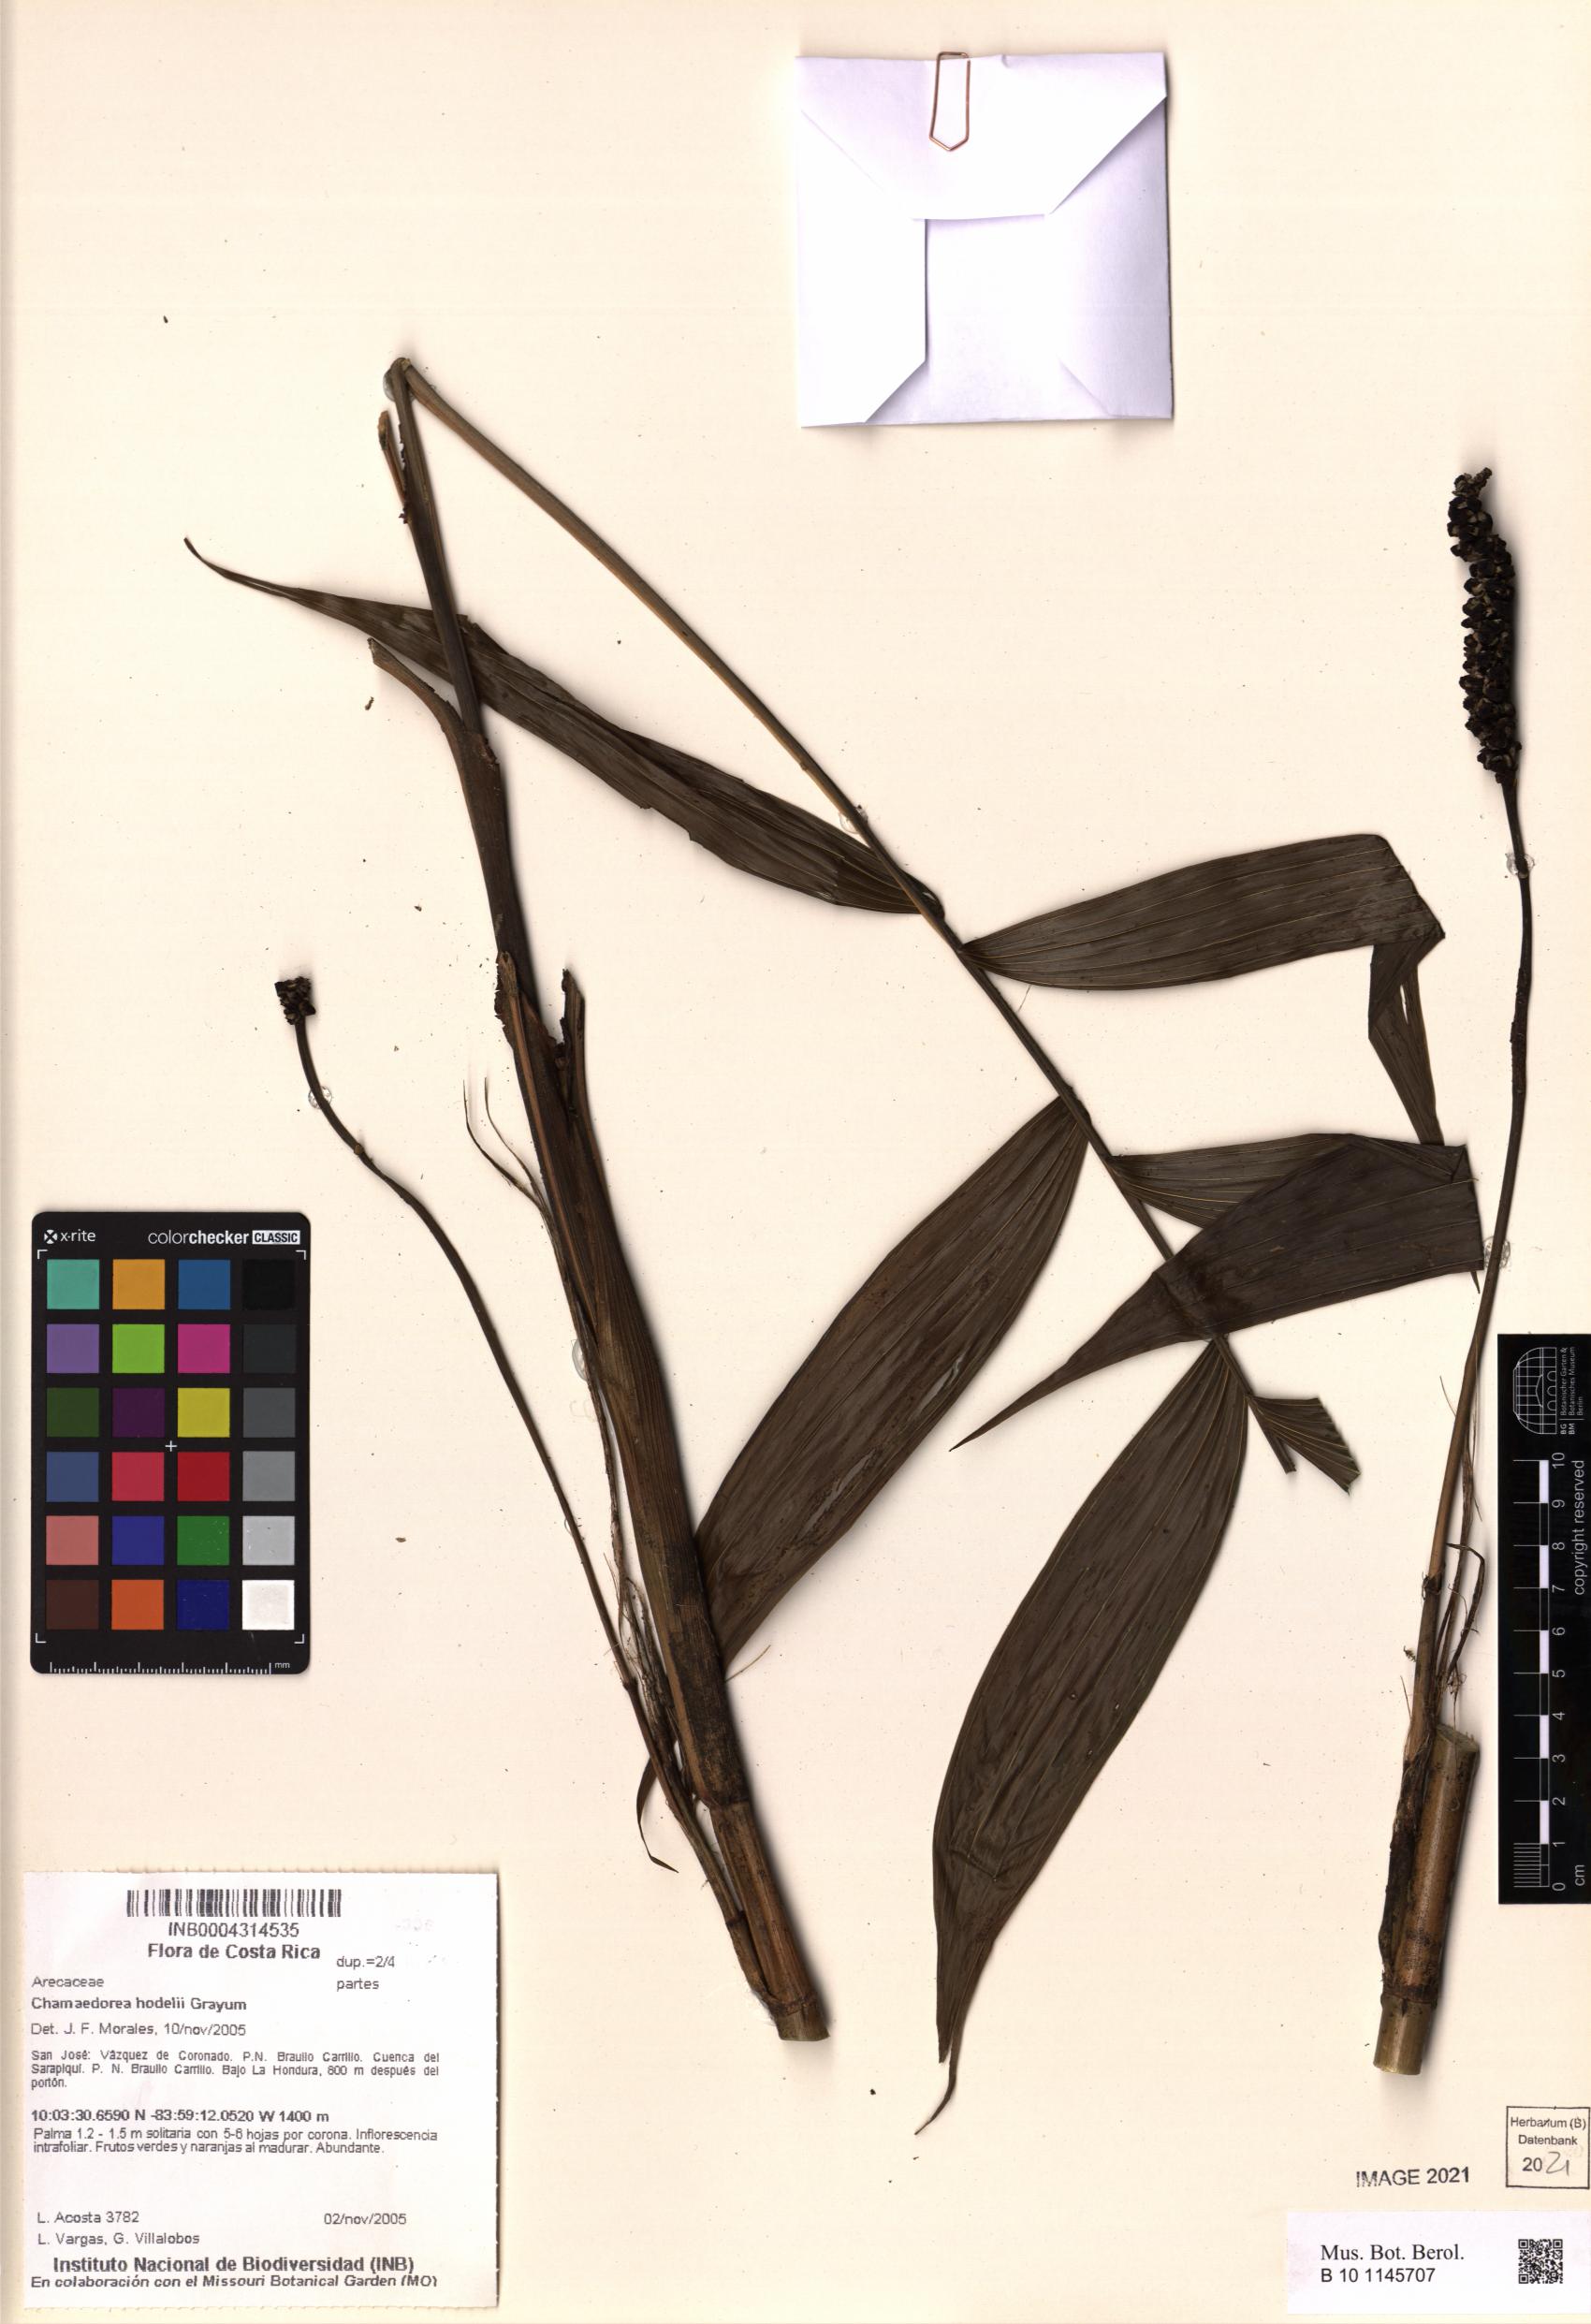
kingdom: Plantae
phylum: Tracheophyta
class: Liliopsida
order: Arecales
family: Arecaceae
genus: Chamaedorea
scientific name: Chamaedorea hodelii
